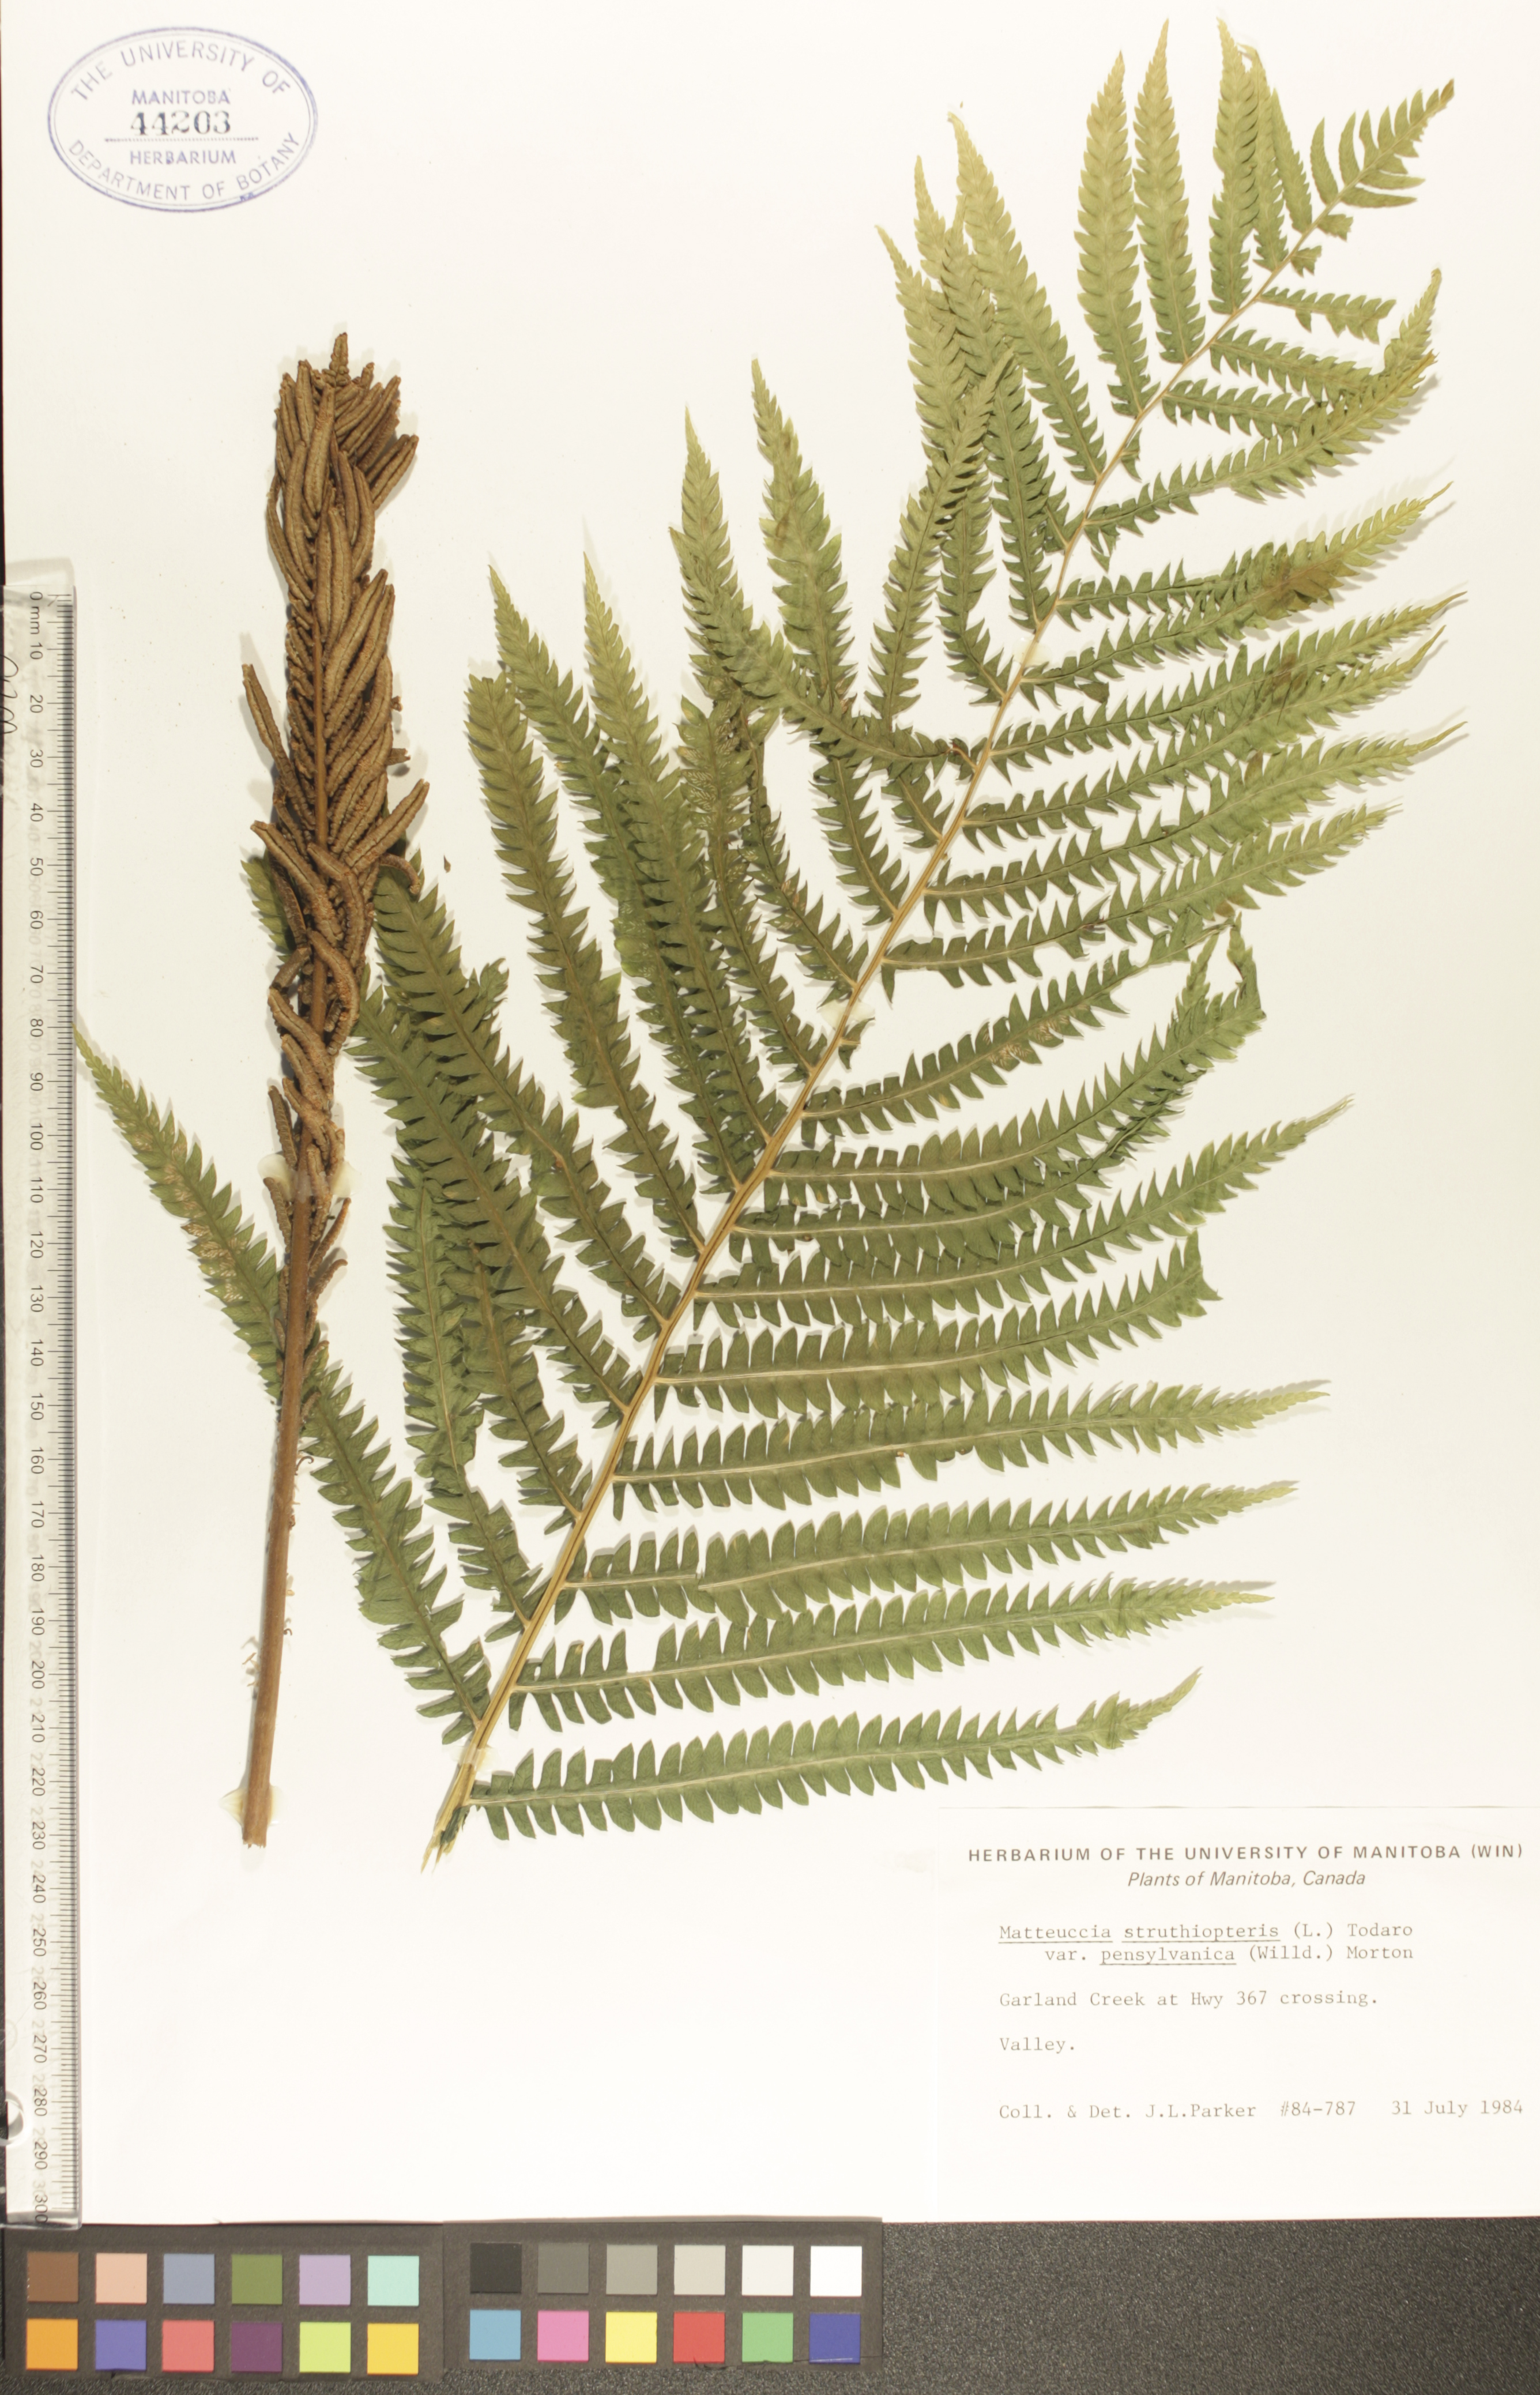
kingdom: Plantae
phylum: Tracheophyta
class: Polypodiopsida
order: Polypodiales
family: Onocleaceae
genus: Matteuccia
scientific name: Matteuccia pensylvanica
